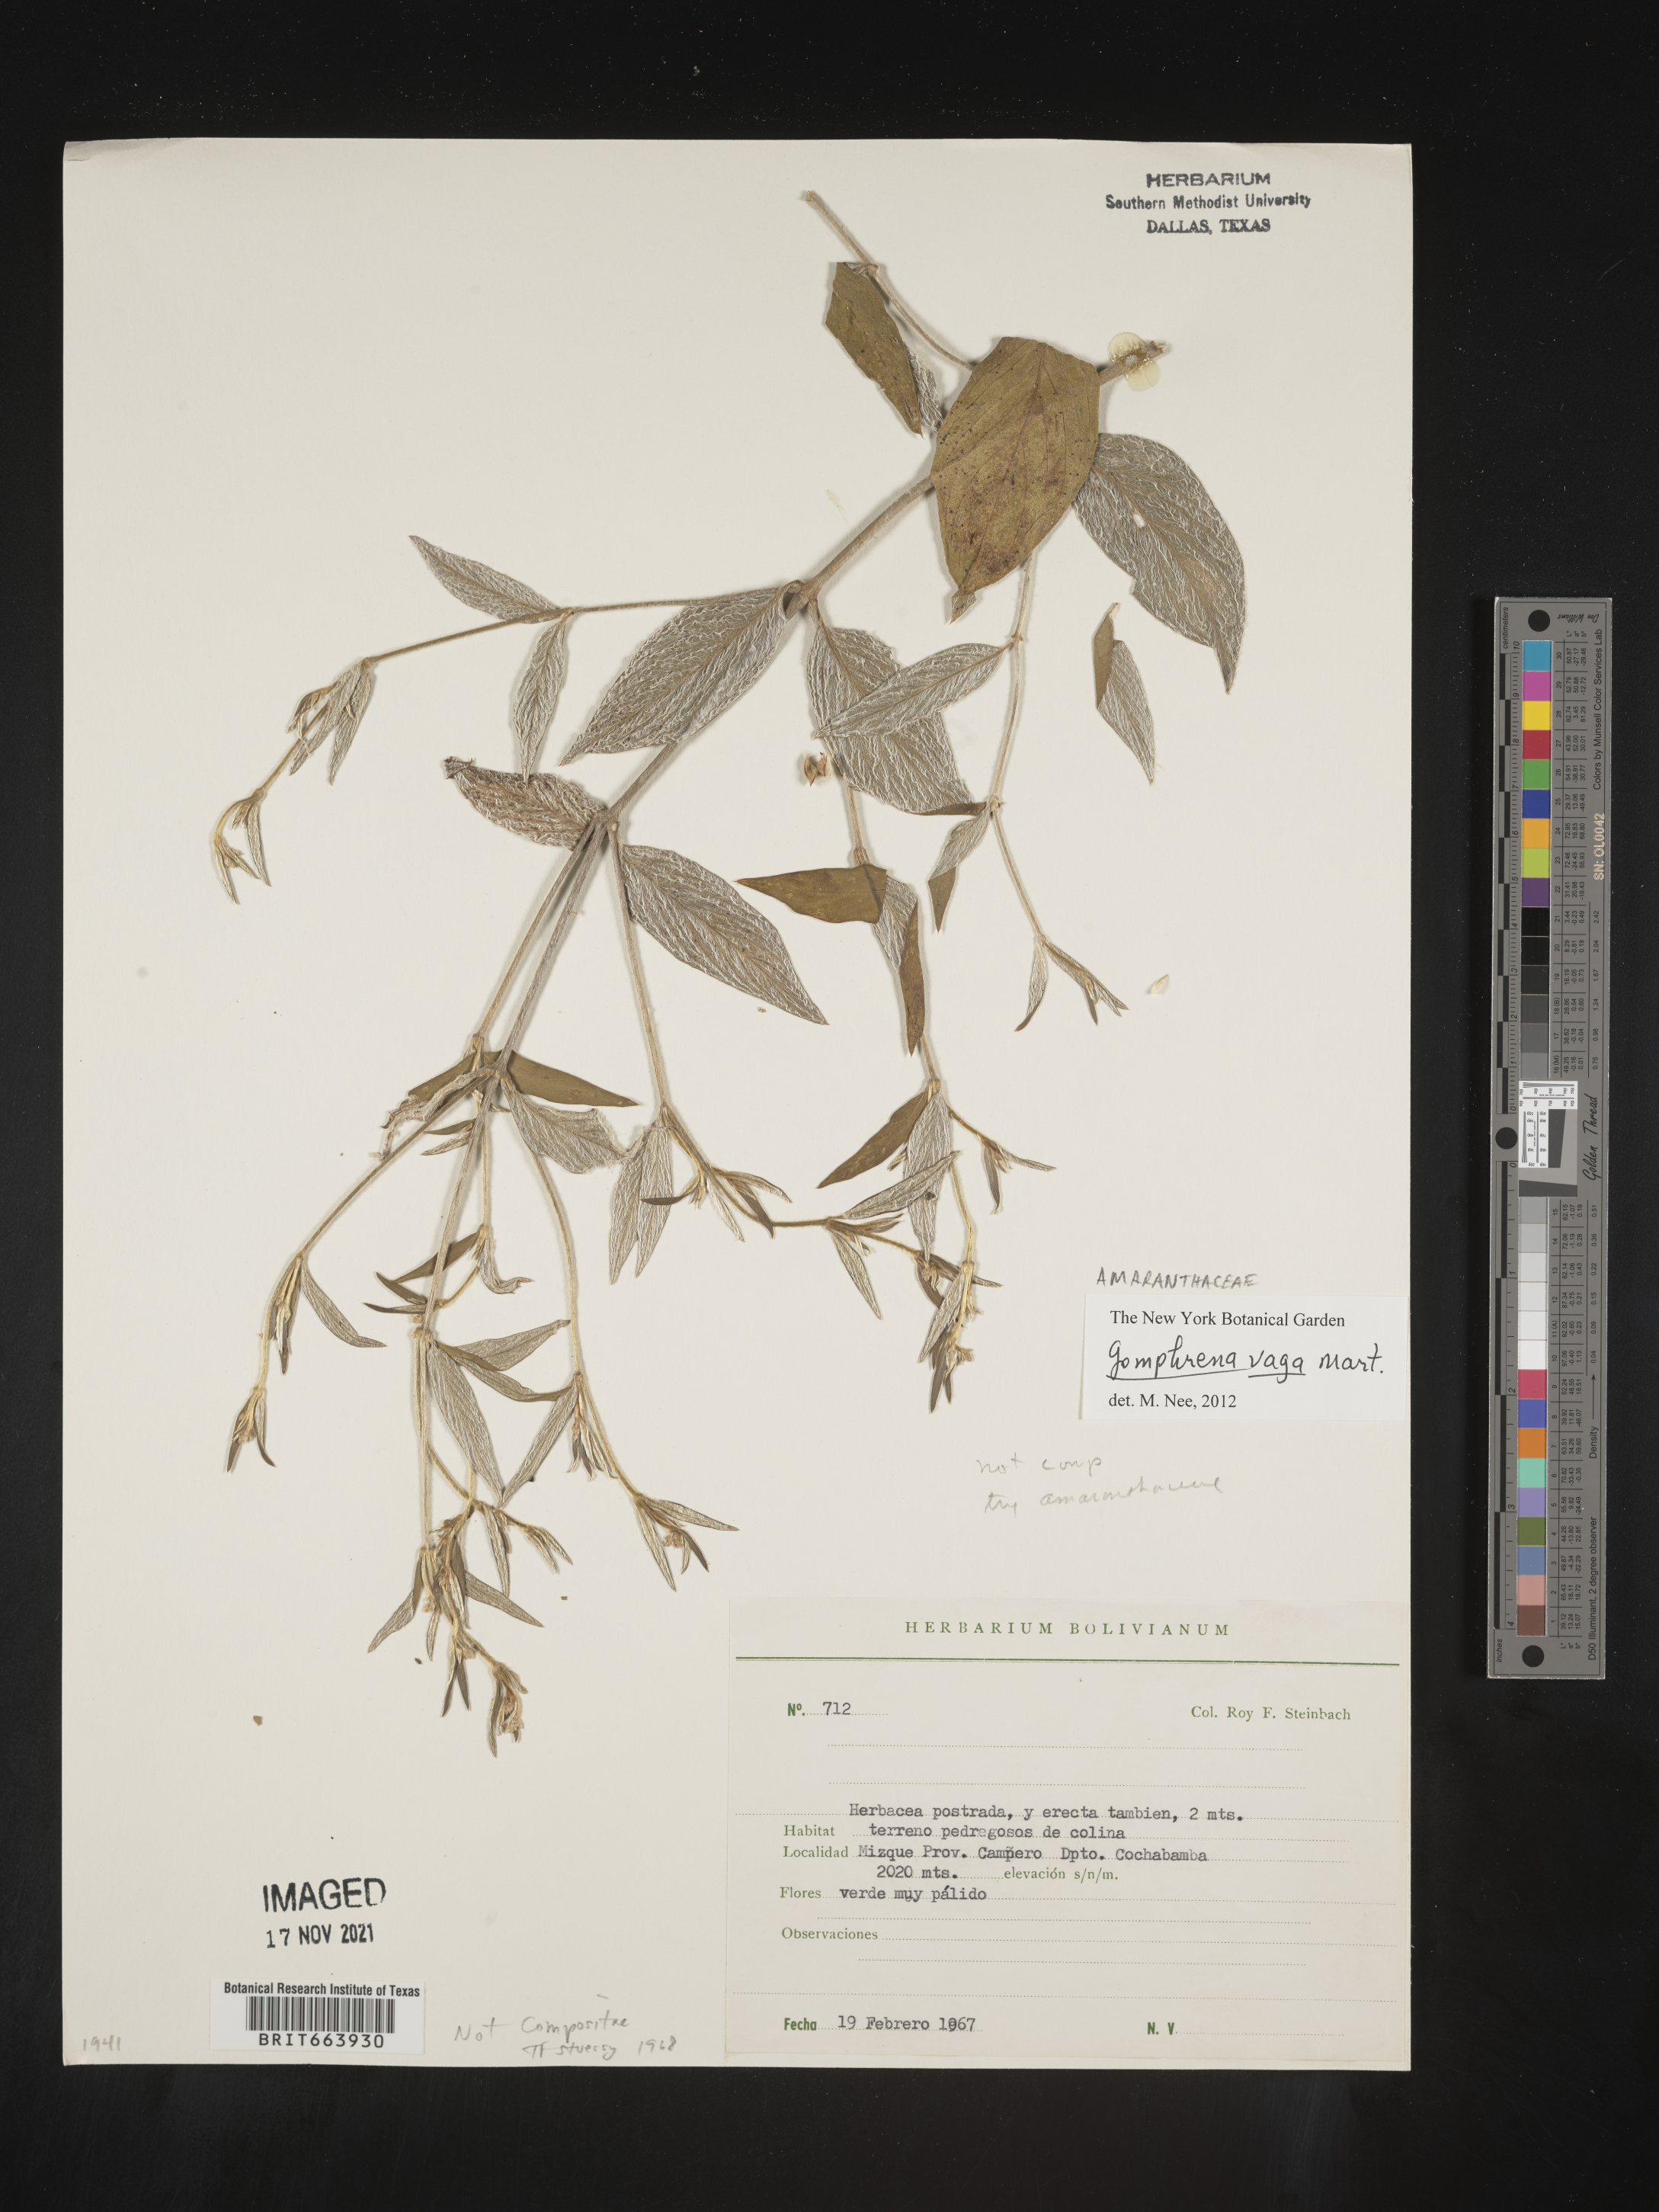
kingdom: Plantae
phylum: Tracheophyta
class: Magnoliopsida
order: Caryophyllales
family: Amaranthaceae
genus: Gomphrena
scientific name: Gomphrena
